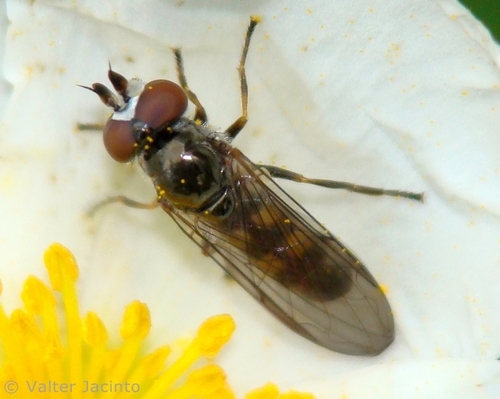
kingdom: Animalia
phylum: Arthropoda
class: Insecta
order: Diptera
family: Syrphidae
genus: Pelecocera
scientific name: Pelecocera
